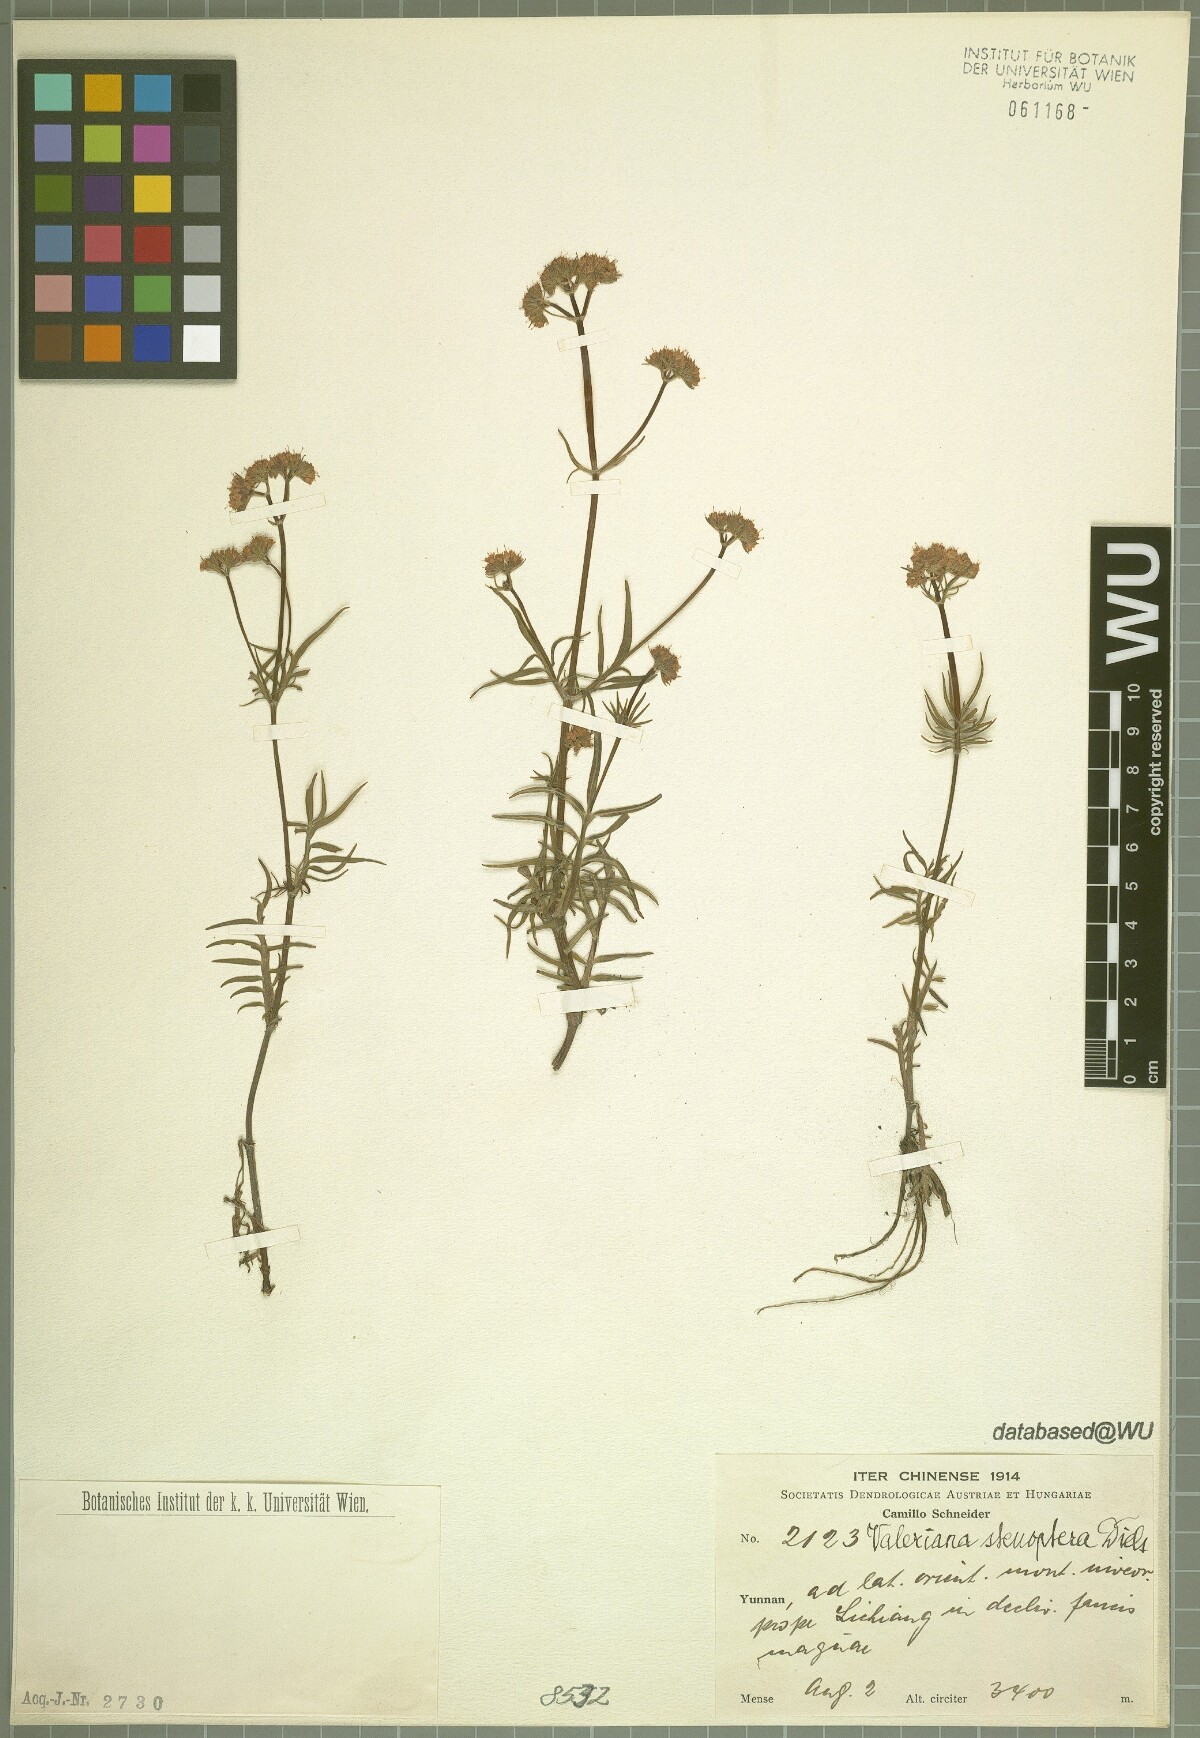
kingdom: Plantae
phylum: Tracheophyta
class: Magnoliopsida
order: Dipsacales
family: Caprifoliaceae
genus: Valeriana
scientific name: Valeriana stenoptera
